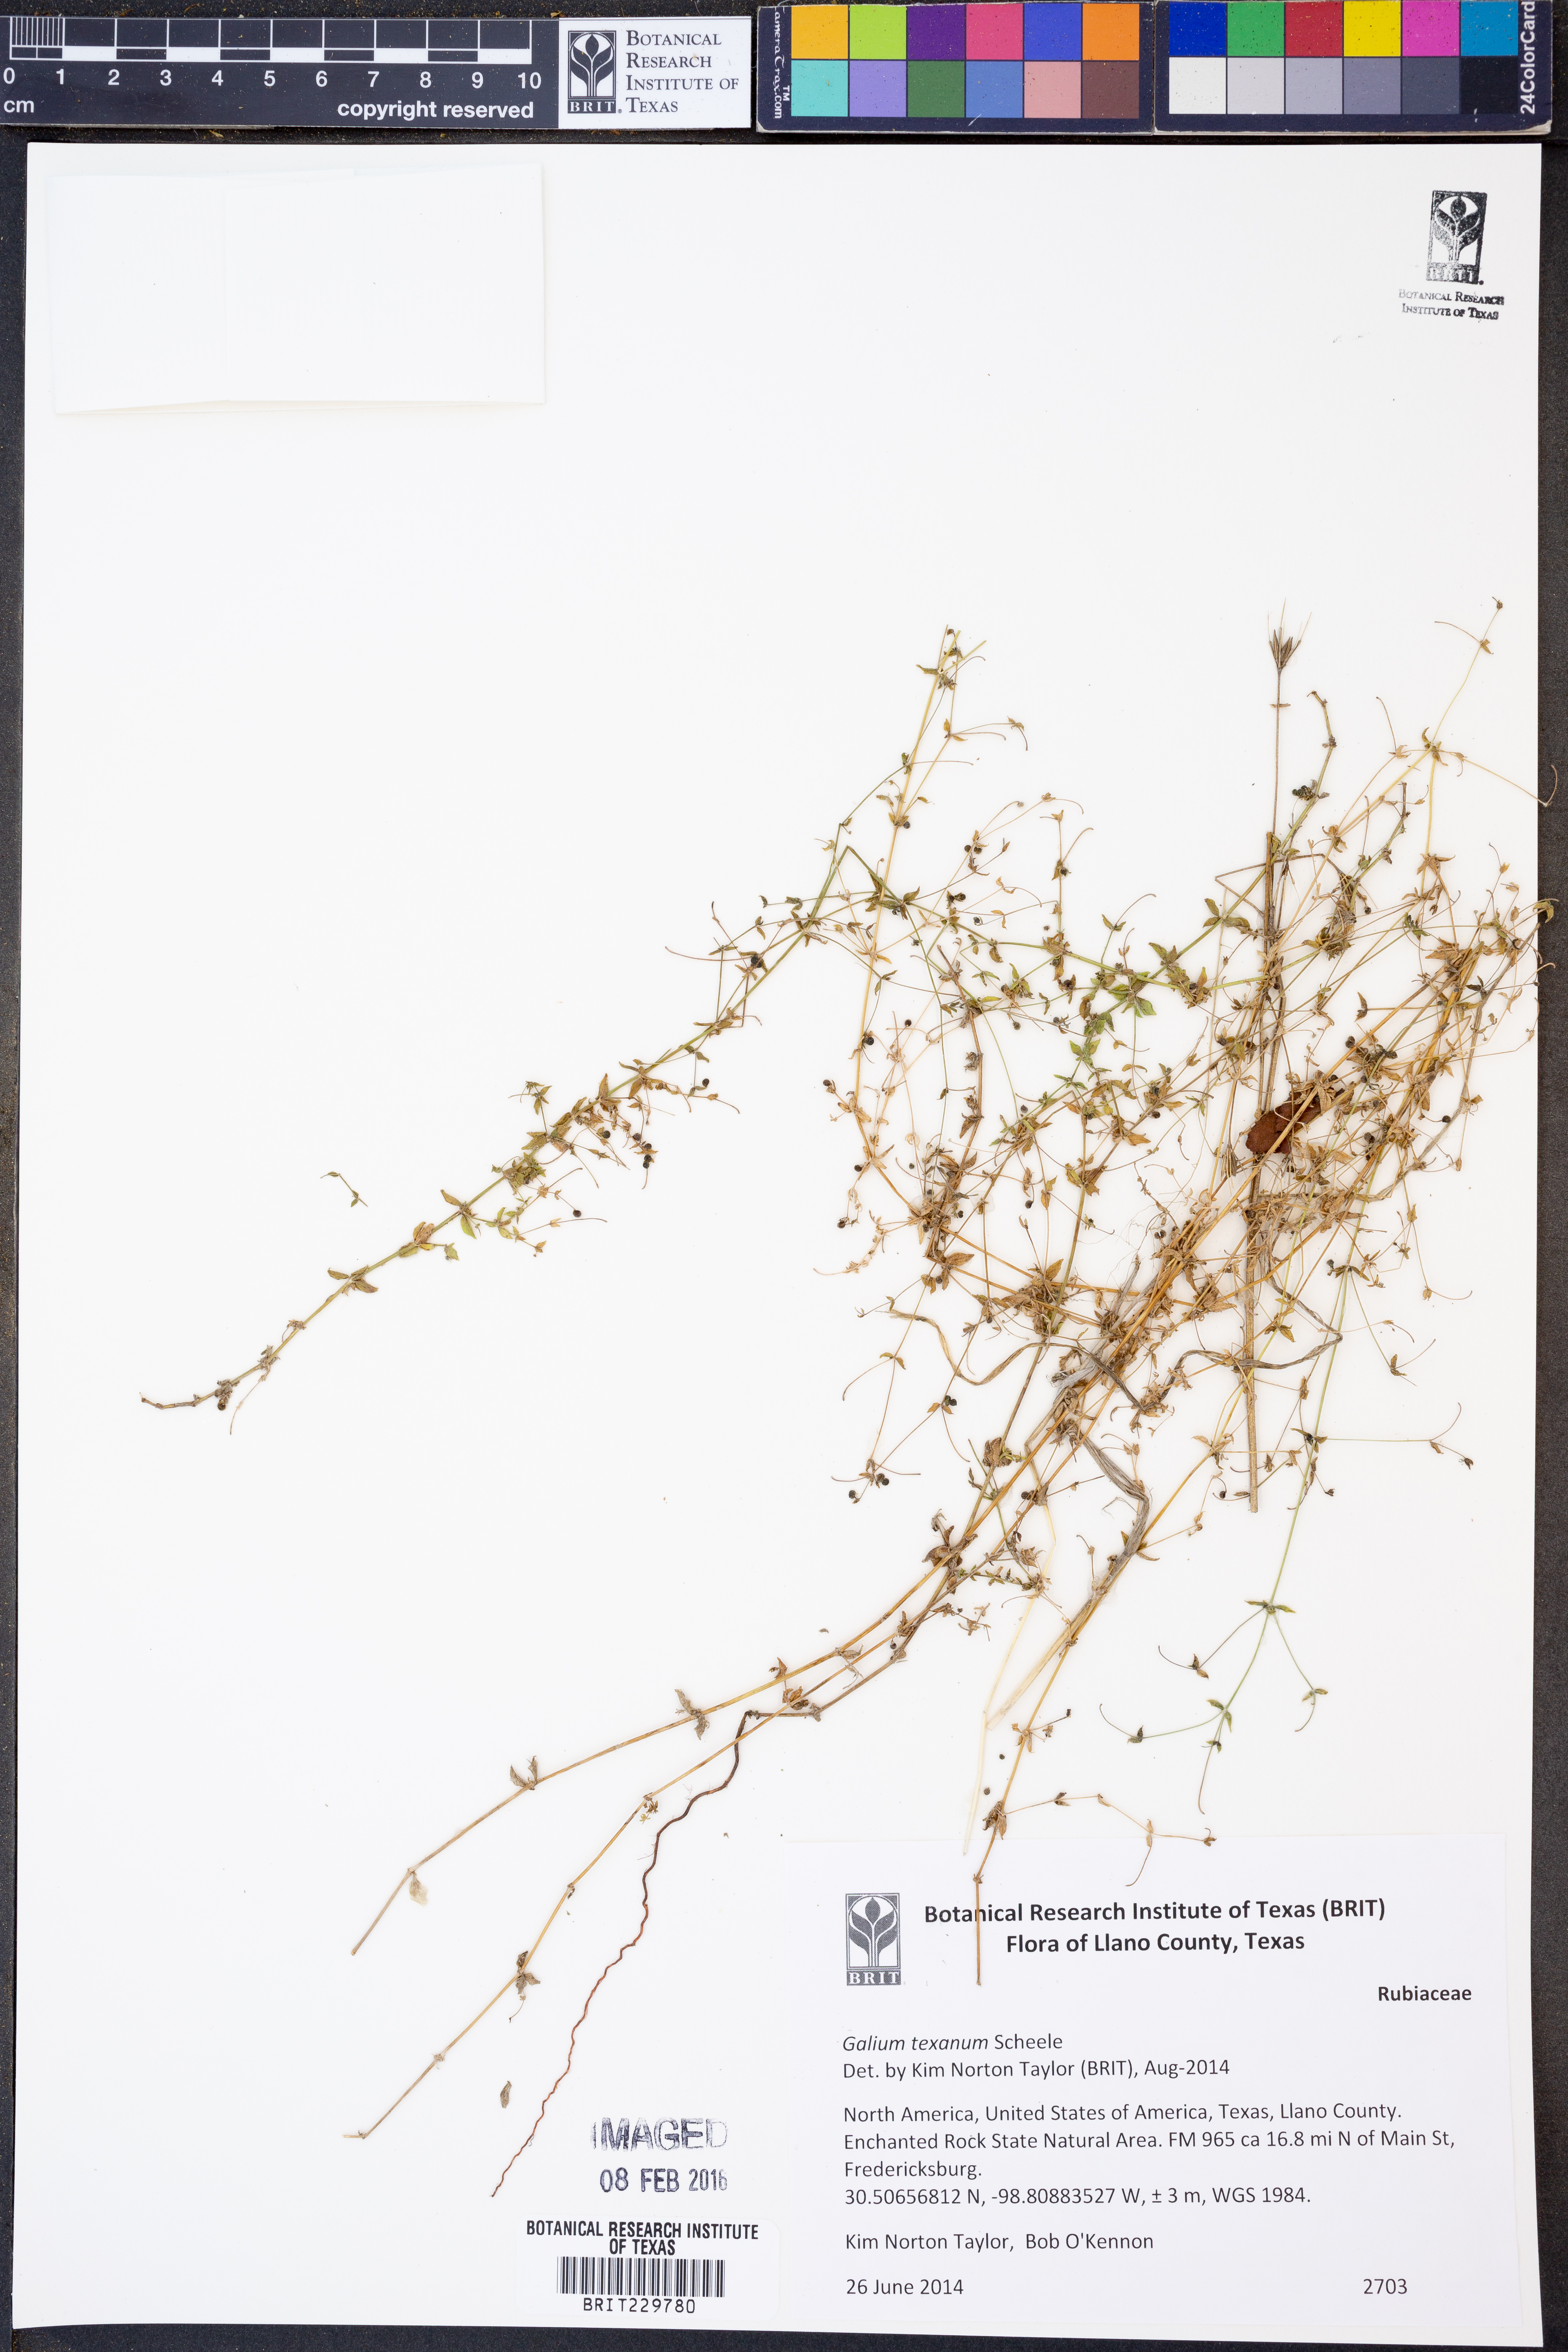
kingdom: Plantae
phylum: Tracheophyta
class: Magnoliopsida
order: Gentianales
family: Rubiaceae
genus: Galium
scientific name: Galium virgatum
